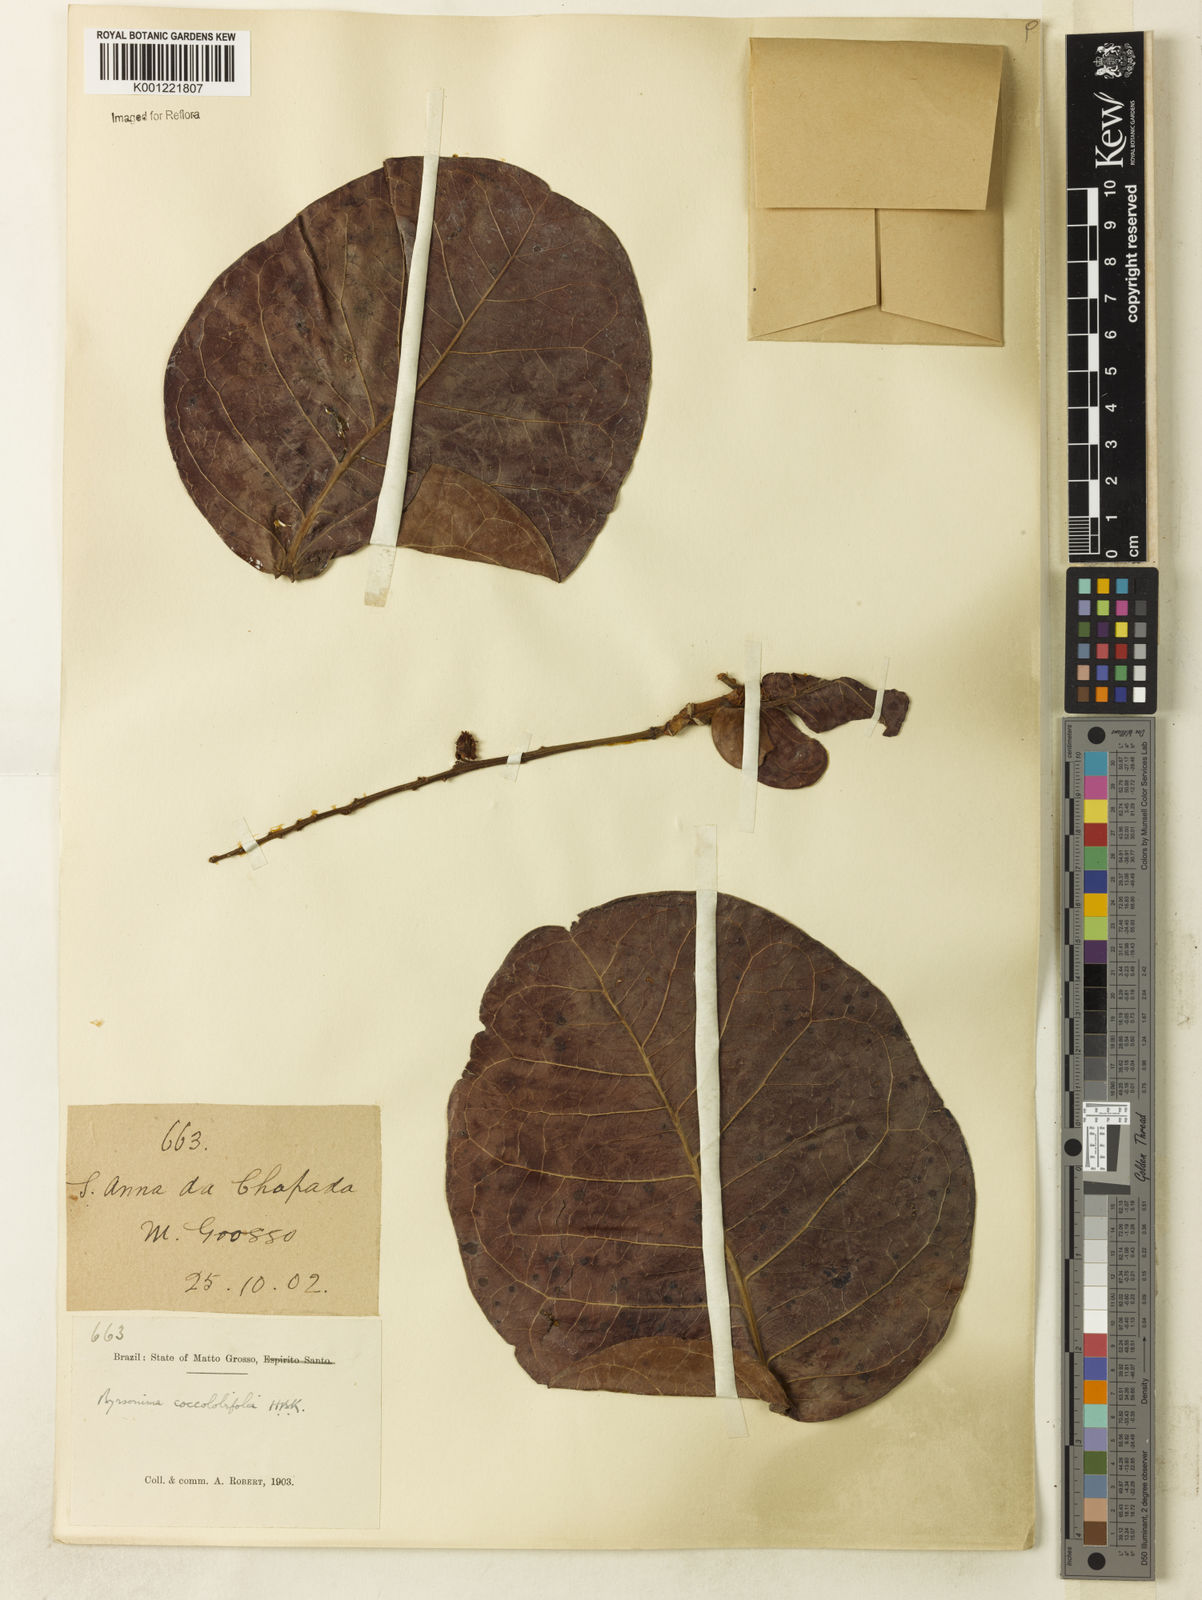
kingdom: Plantae
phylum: Tracheophyta
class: Magnoliopsida
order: Malpighiales
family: Malpighiaceae
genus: Byrsonima
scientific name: Byrsonima coccolobifolia
